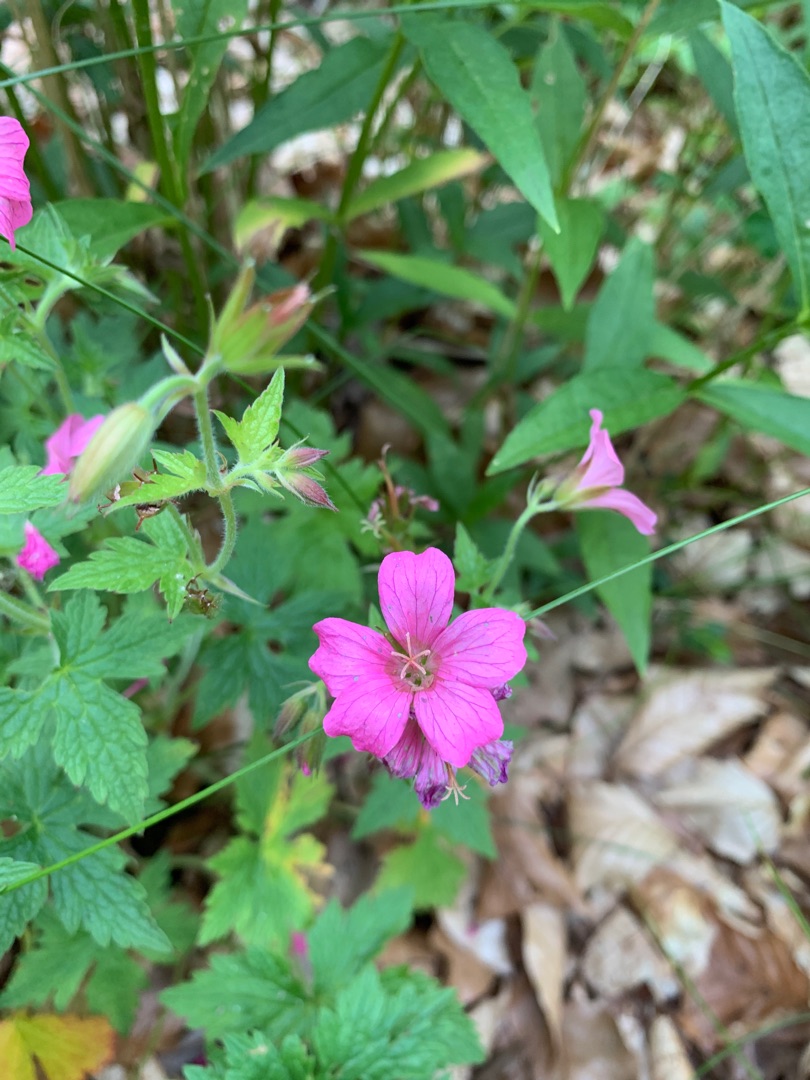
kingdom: Plantae
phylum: Tracheophyta
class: Magnoliopsida
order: Geraniales
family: Geraniaceae
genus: Geranium
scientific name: Geranium endressii
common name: Spansk storkenæb
